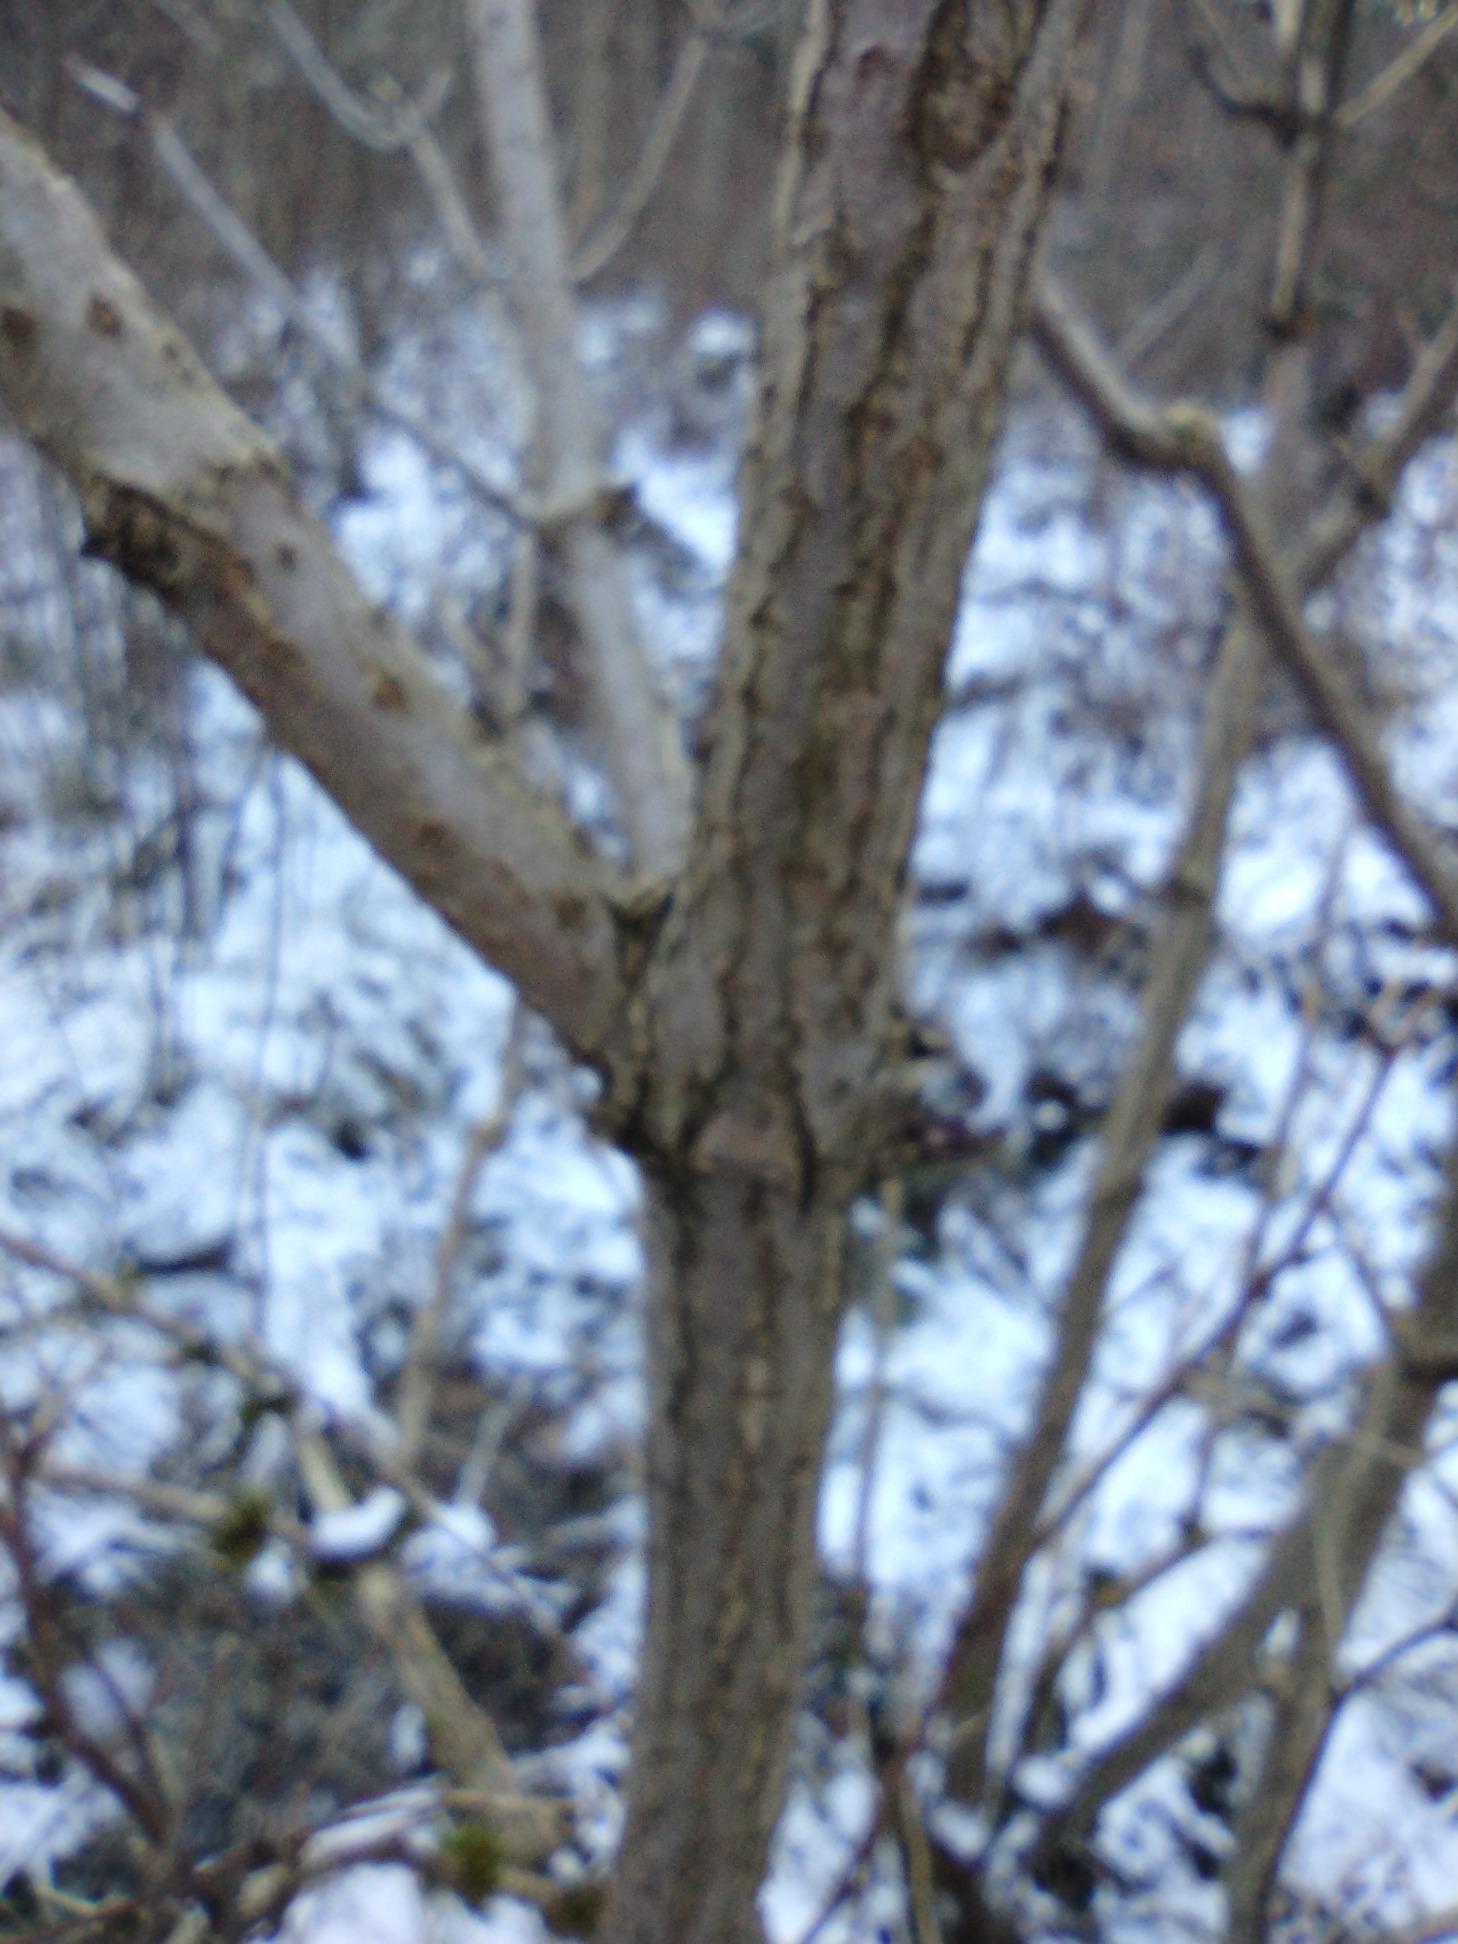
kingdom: Plantae
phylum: Tracheophyta
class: Magnoliopsida
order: Dipsacales
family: Viburnaceae
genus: Sambucus
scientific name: Sambucus nigra
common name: Almindelig hyld
